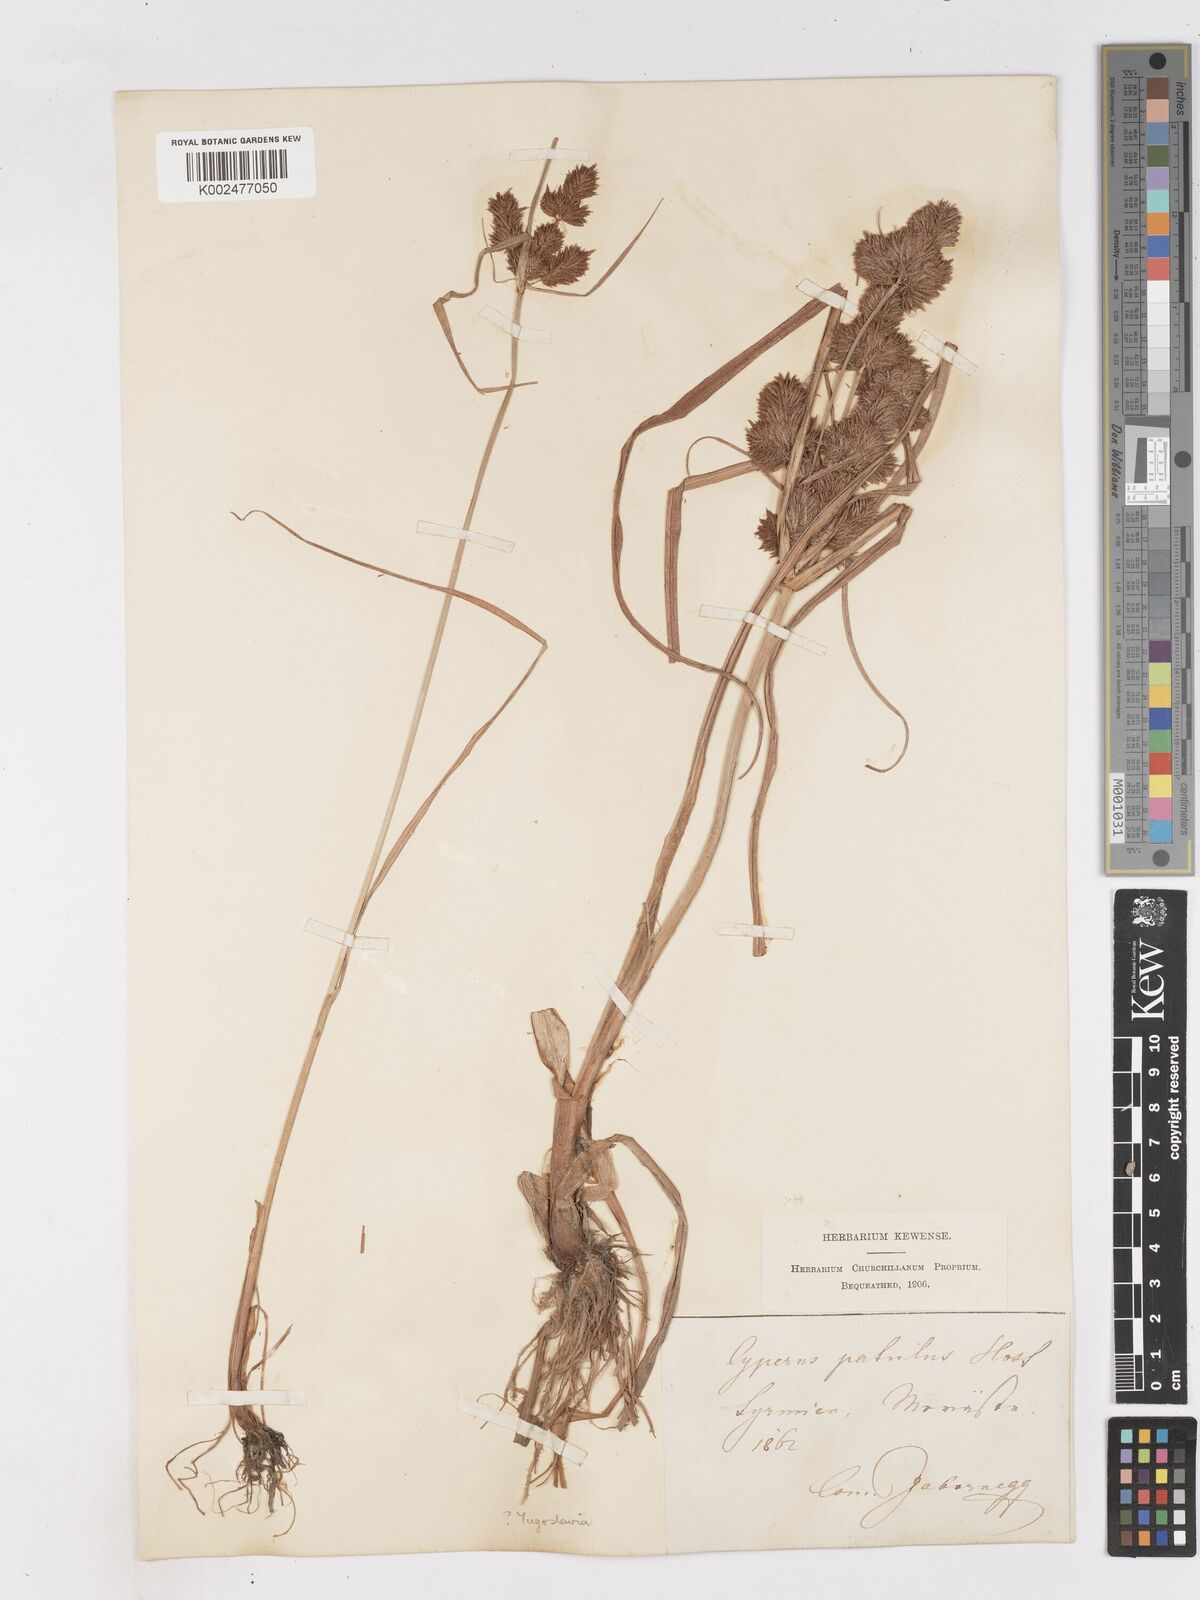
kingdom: Plantae
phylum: Tracheophyta
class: Liliopsida
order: Poales
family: Cyperaceae
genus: Cyperus
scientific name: Cyperus glomeratus
